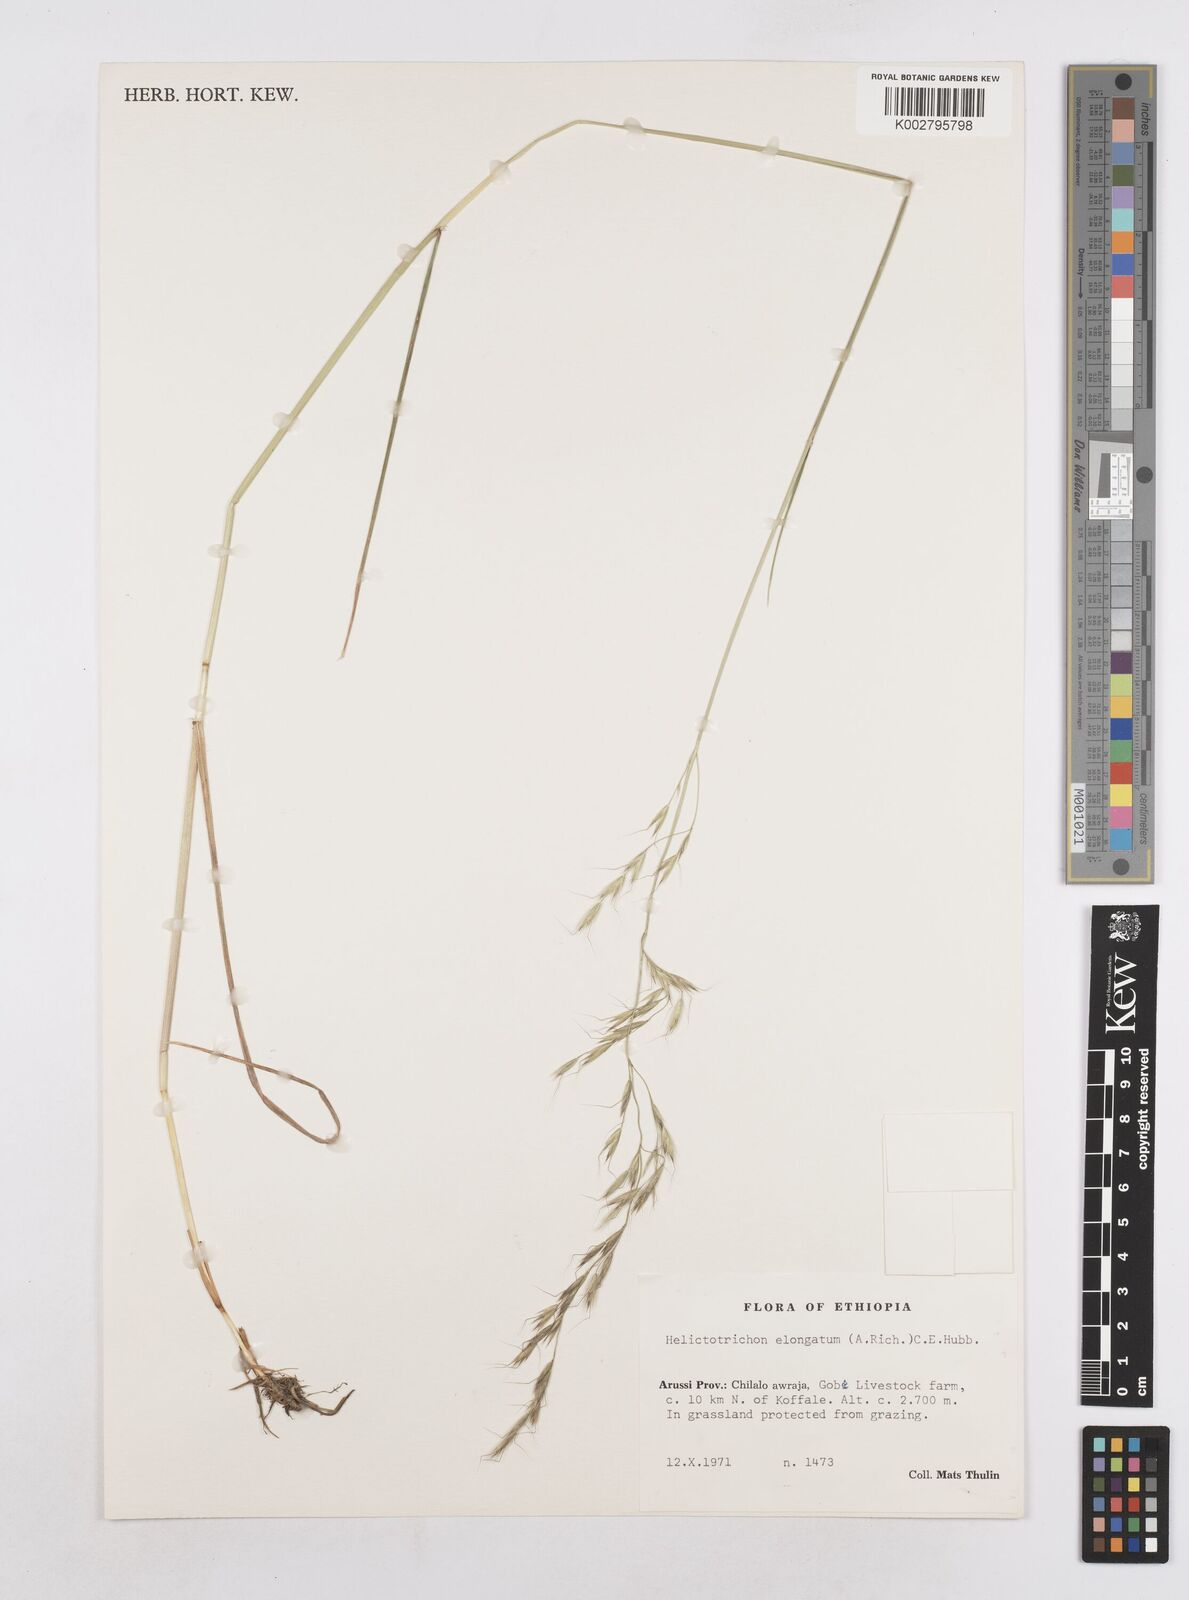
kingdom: Plantae
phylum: Tracheophyta
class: Liliopsida
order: Poales
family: Poaceae
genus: Trisetopsis
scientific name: Trisetopsis elongata
